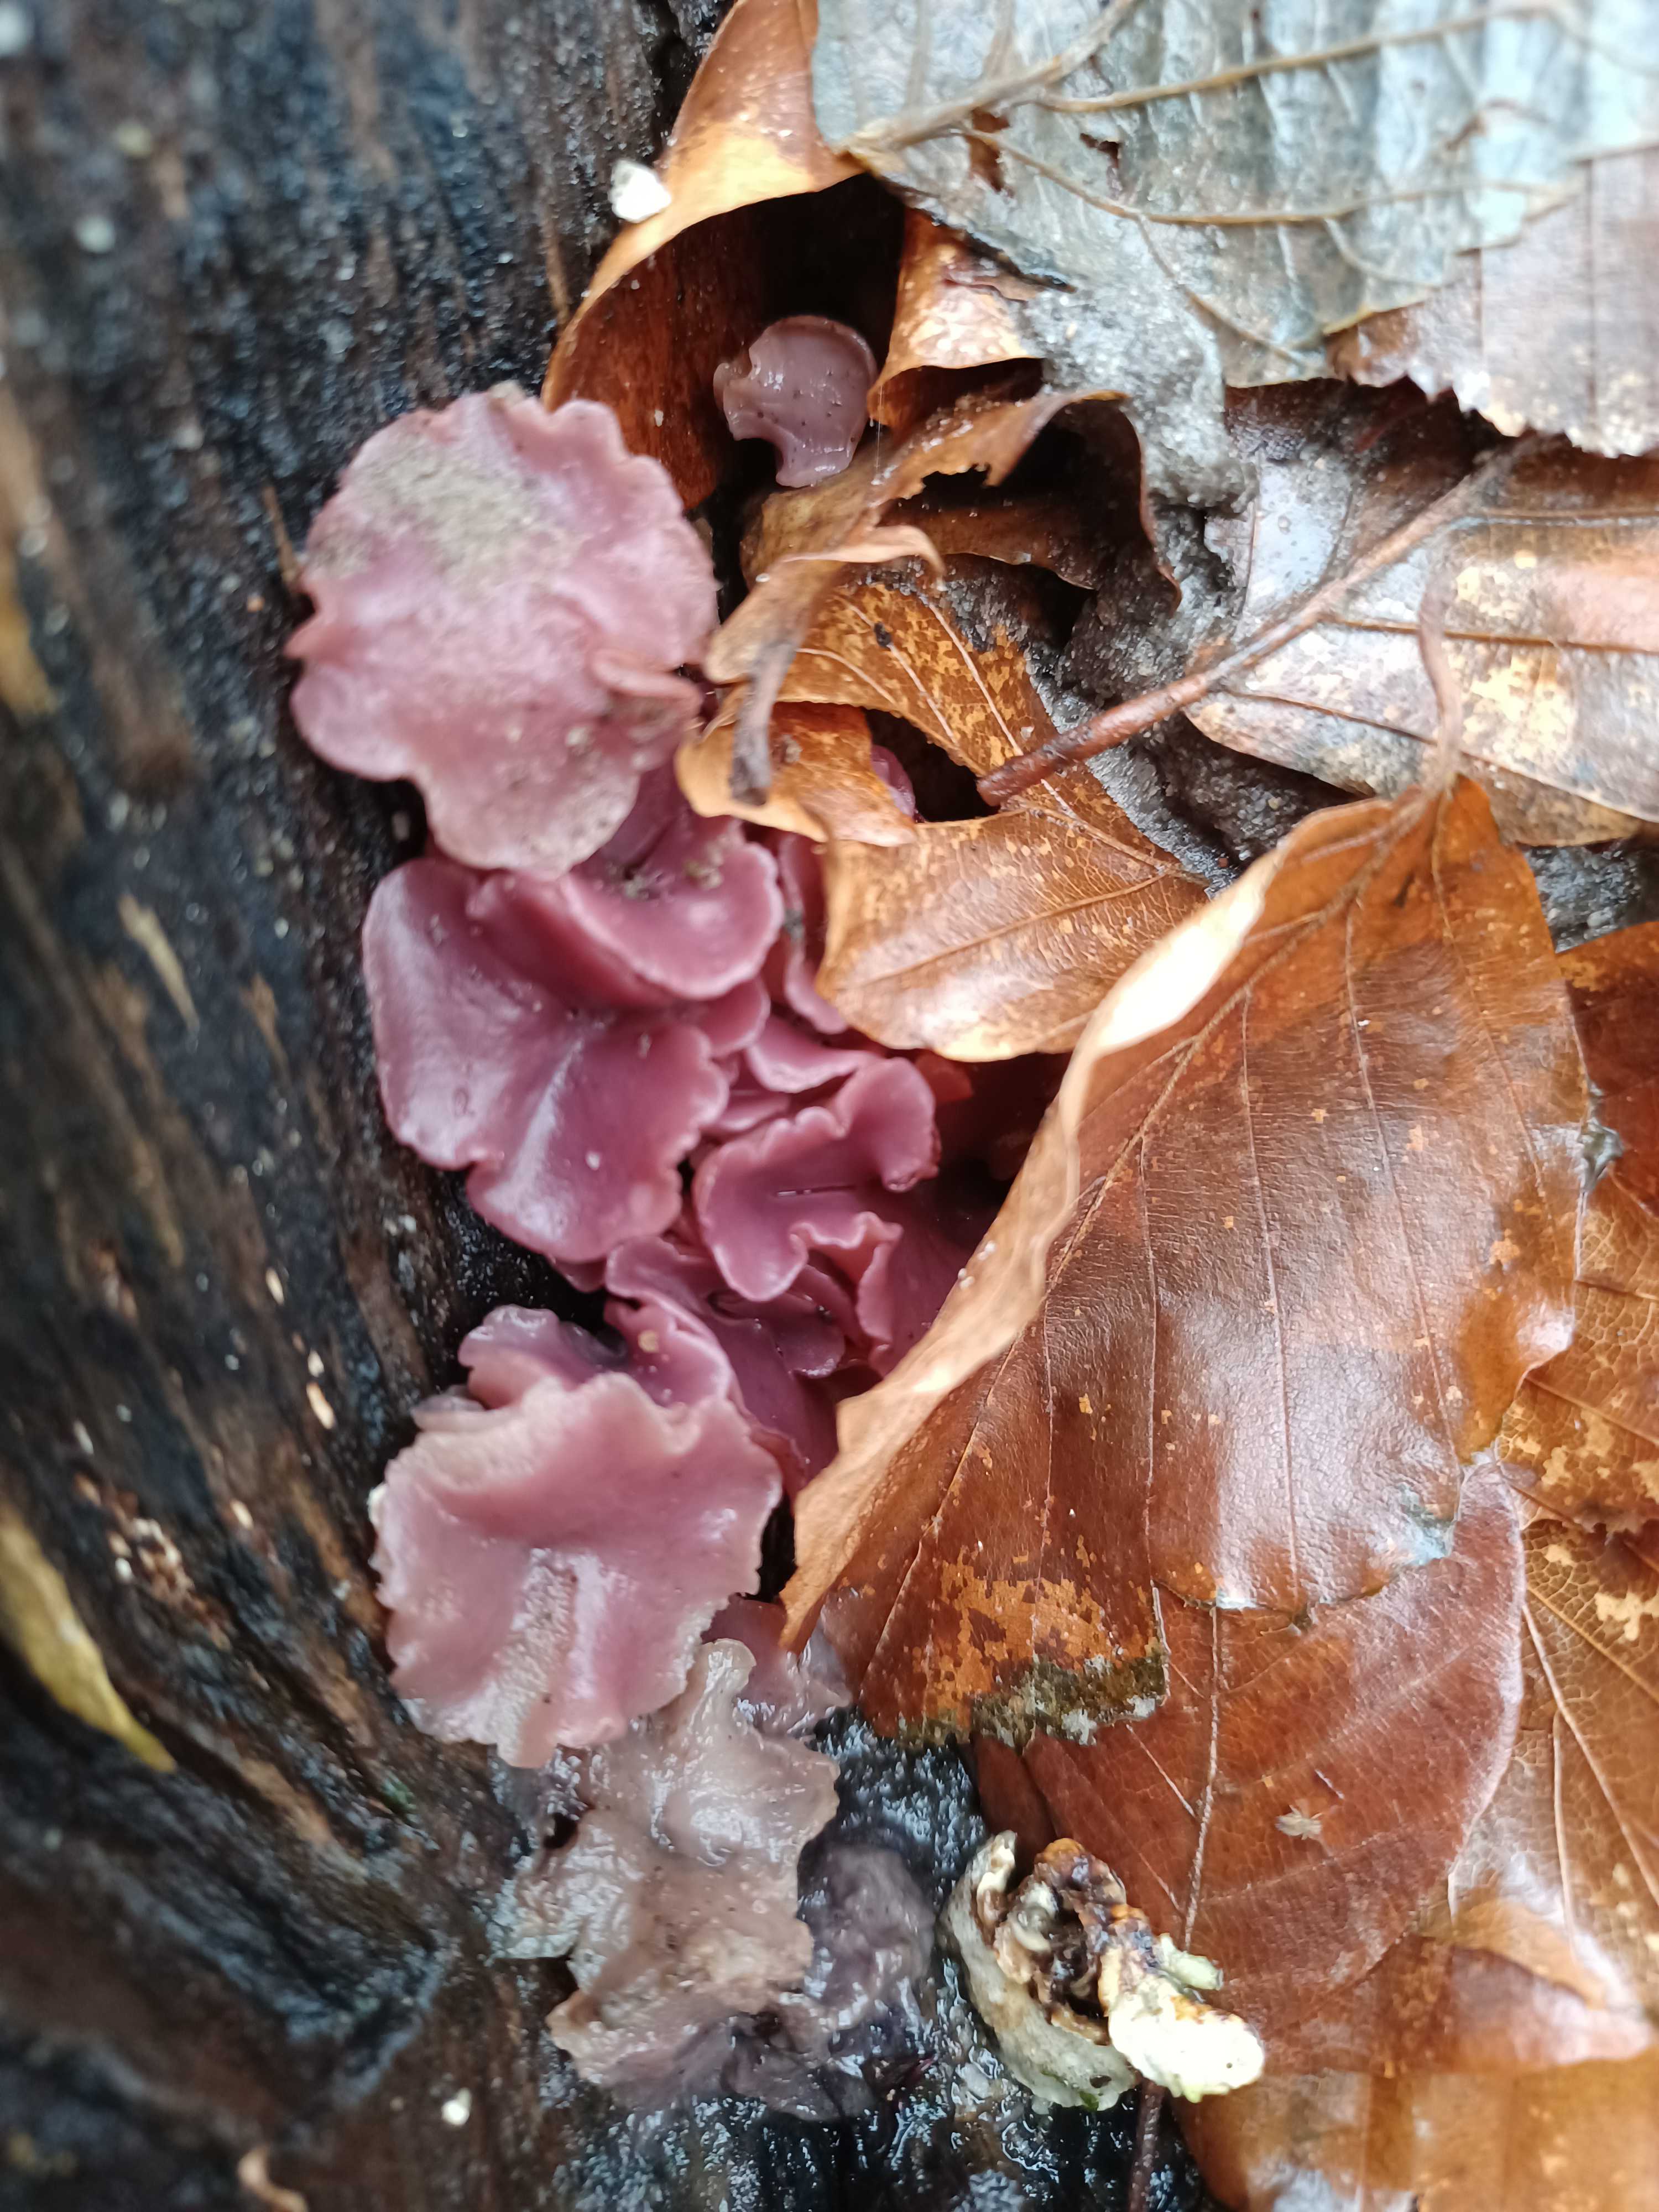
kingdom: Fungi
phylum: Ascomycota
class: Leotiomycetes
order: Helotiales
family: Gelatinodiscaceae
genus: Ascocoryne
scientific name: Ascocoryne
